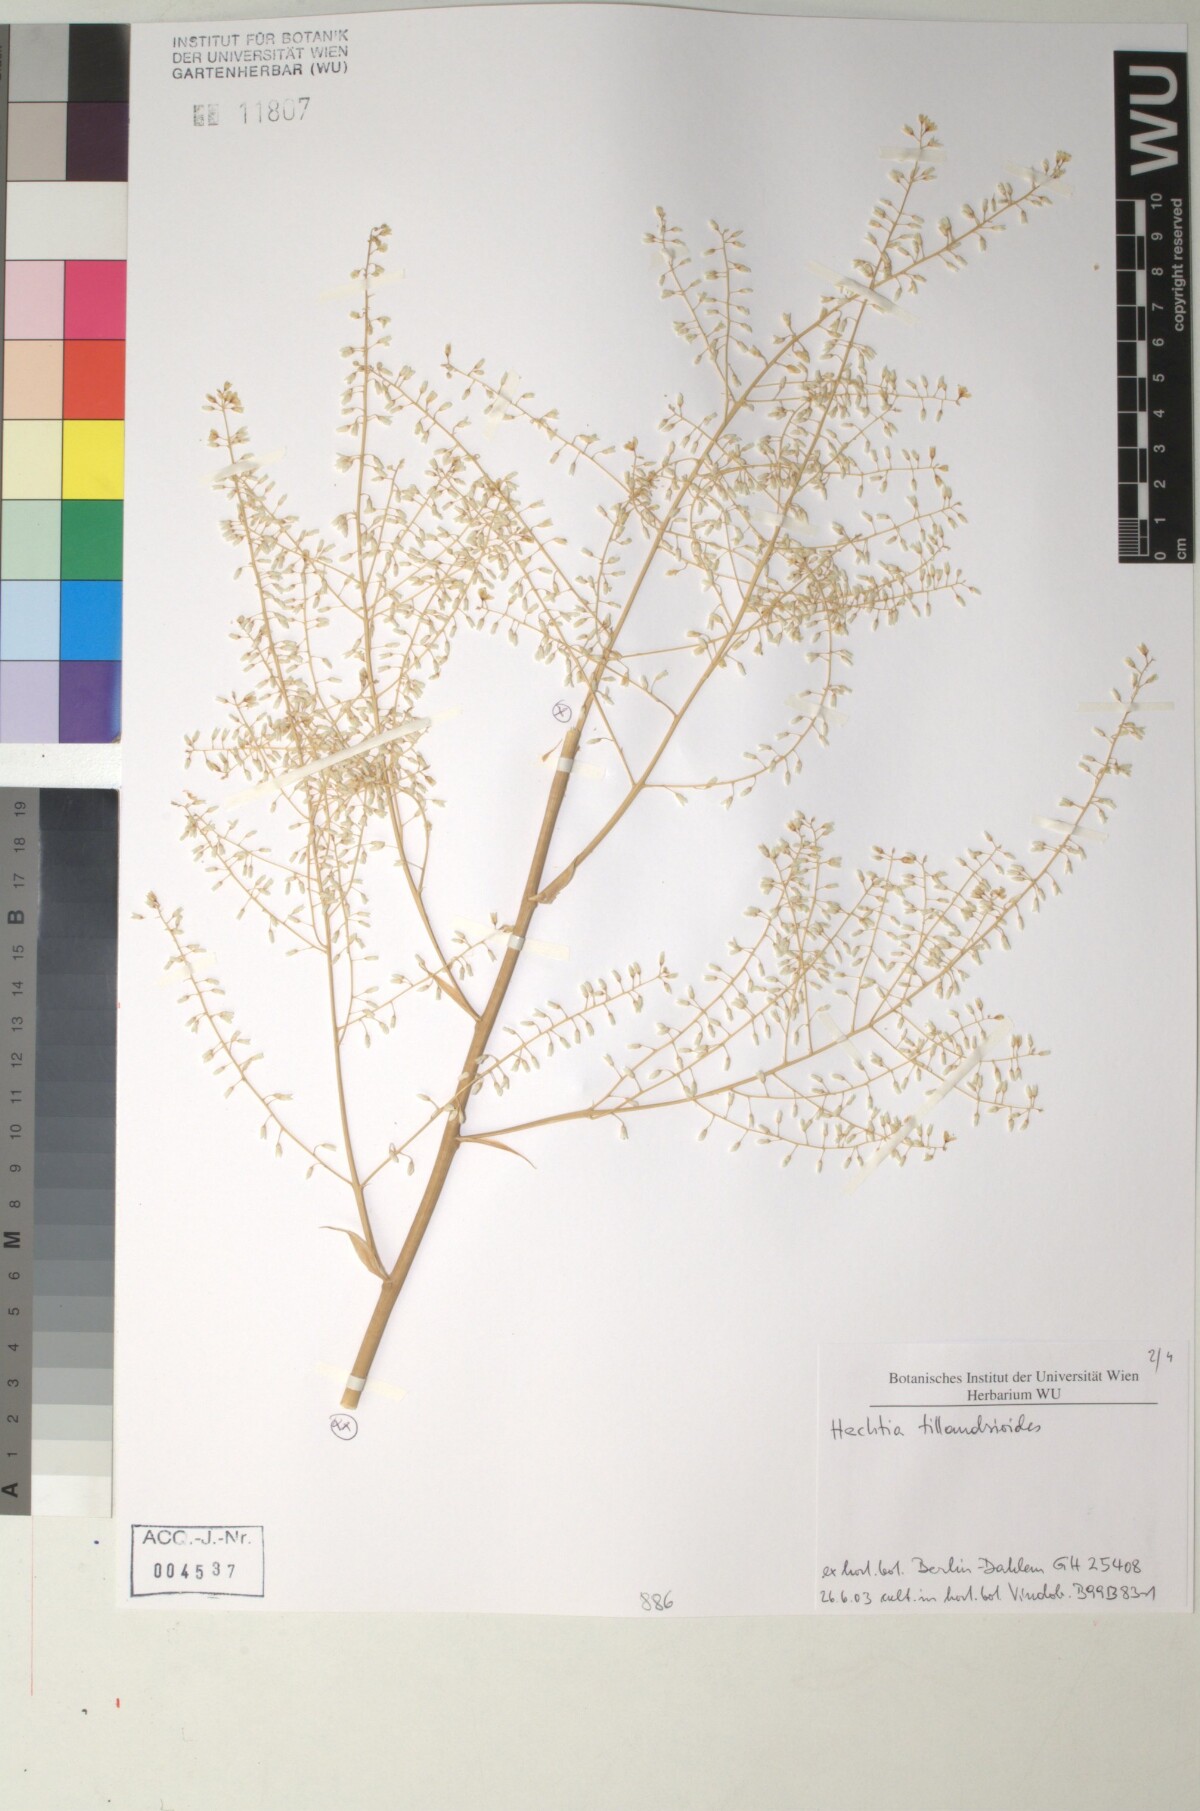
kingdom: Plantae
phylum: Tracheophyta
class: Liliopsida
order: Poales
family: Bromeliaceae
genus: Hechtia
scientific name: Hechtia
